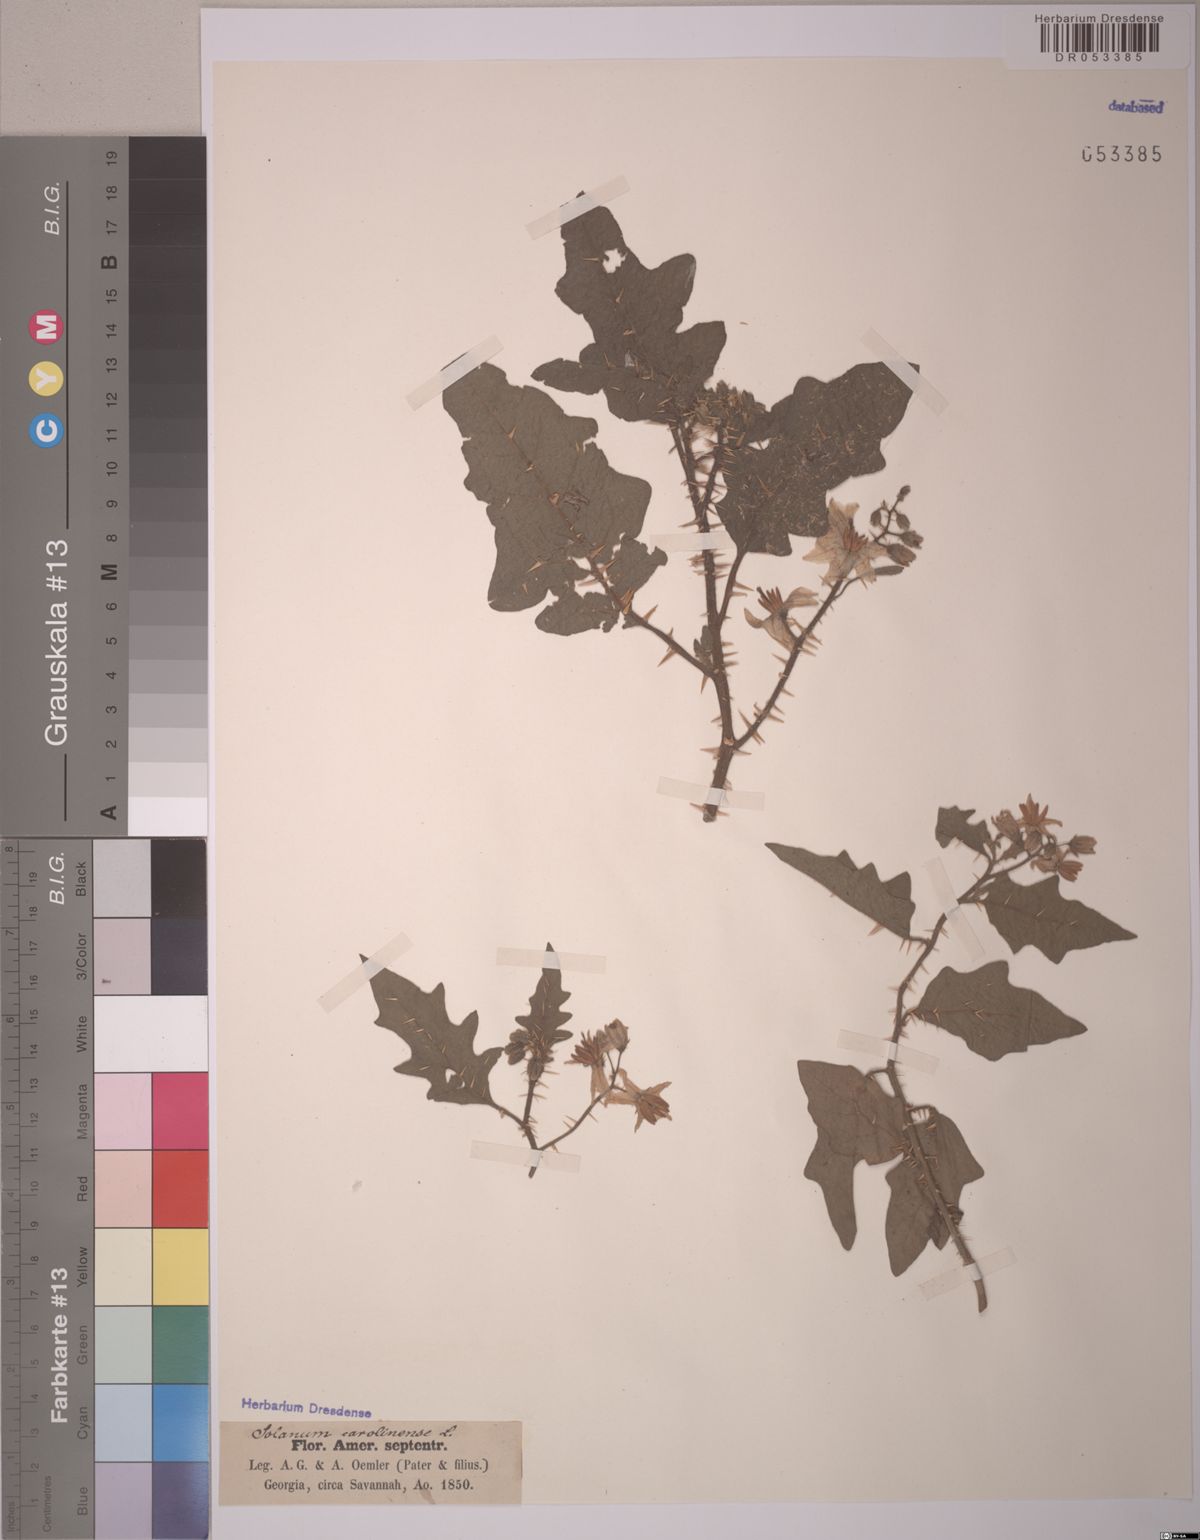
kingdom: Plantae
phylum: Tracheophyta
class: Magnoliopsida
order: Solanales
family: Solanaceae
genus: Solanum
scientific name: Solanum carolinense
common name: Horse-nettle
